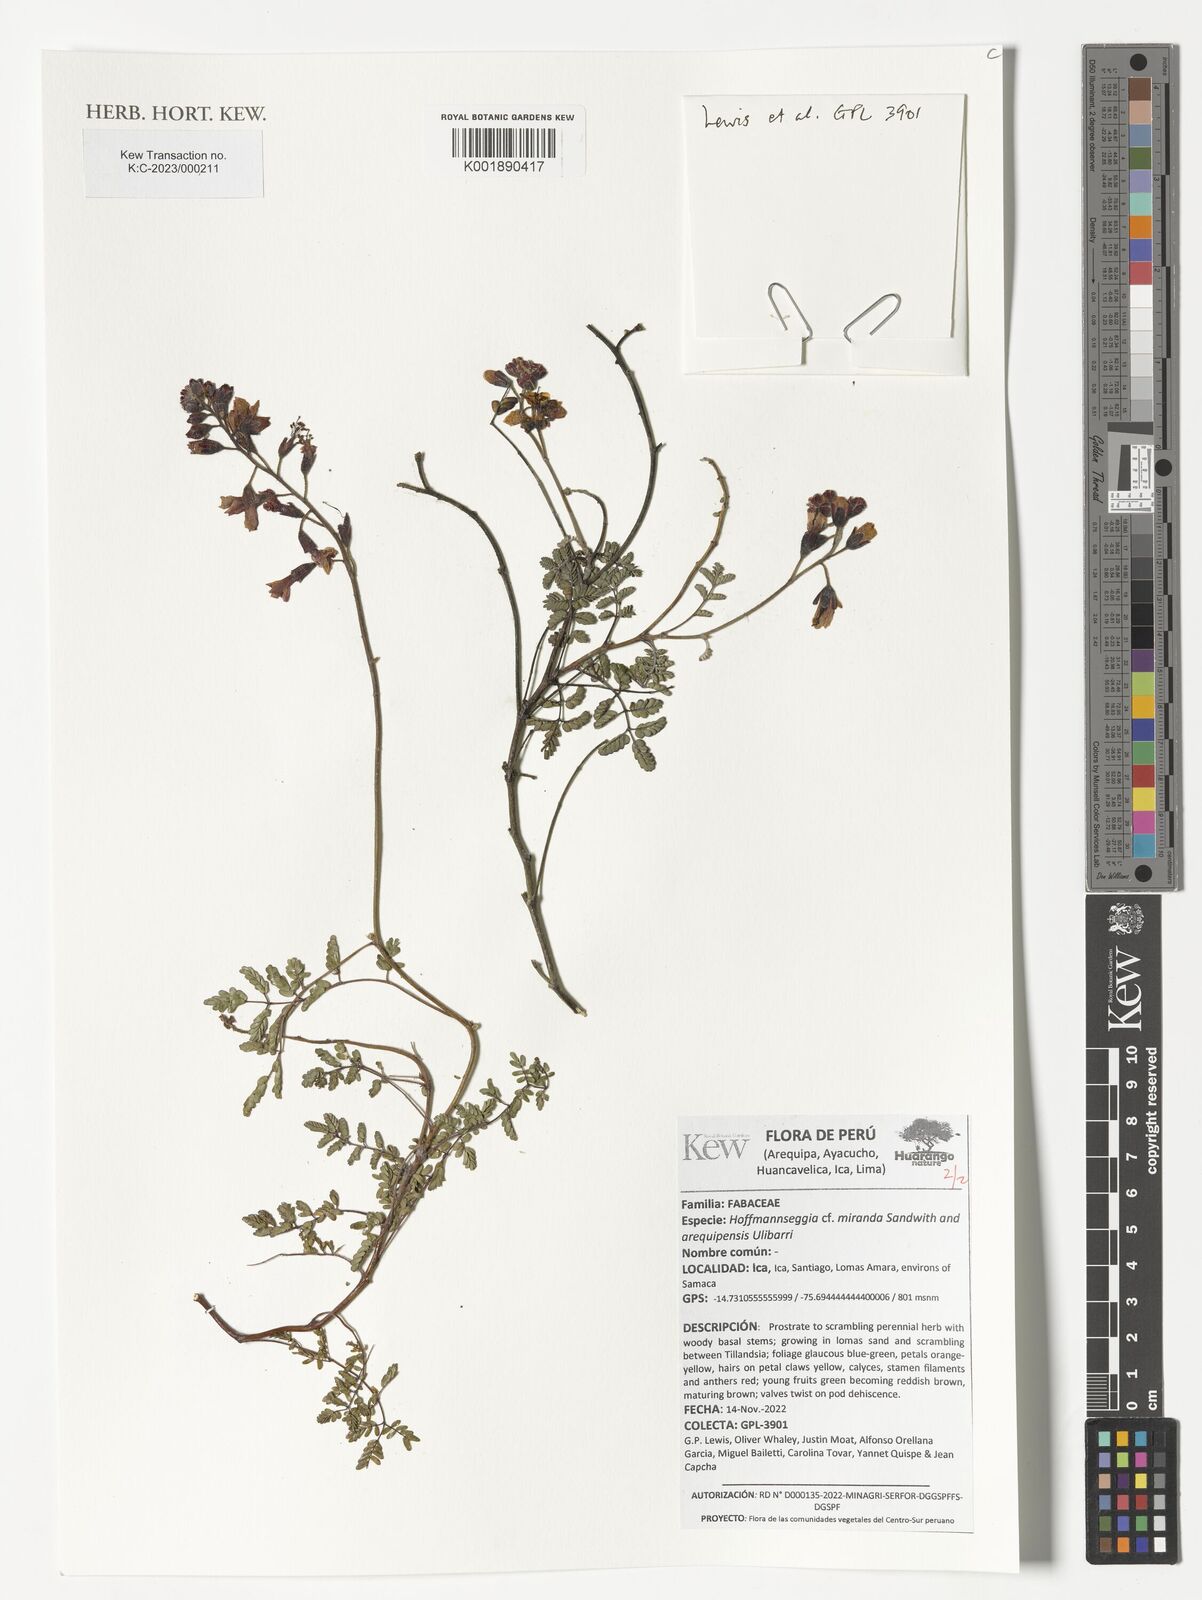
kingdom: Plantae
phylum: Tracheophyta
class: Magnoliopsida
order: Fabales
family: Fabaceae
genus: Hoffmannseggia
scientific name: Hoffmannseggia
